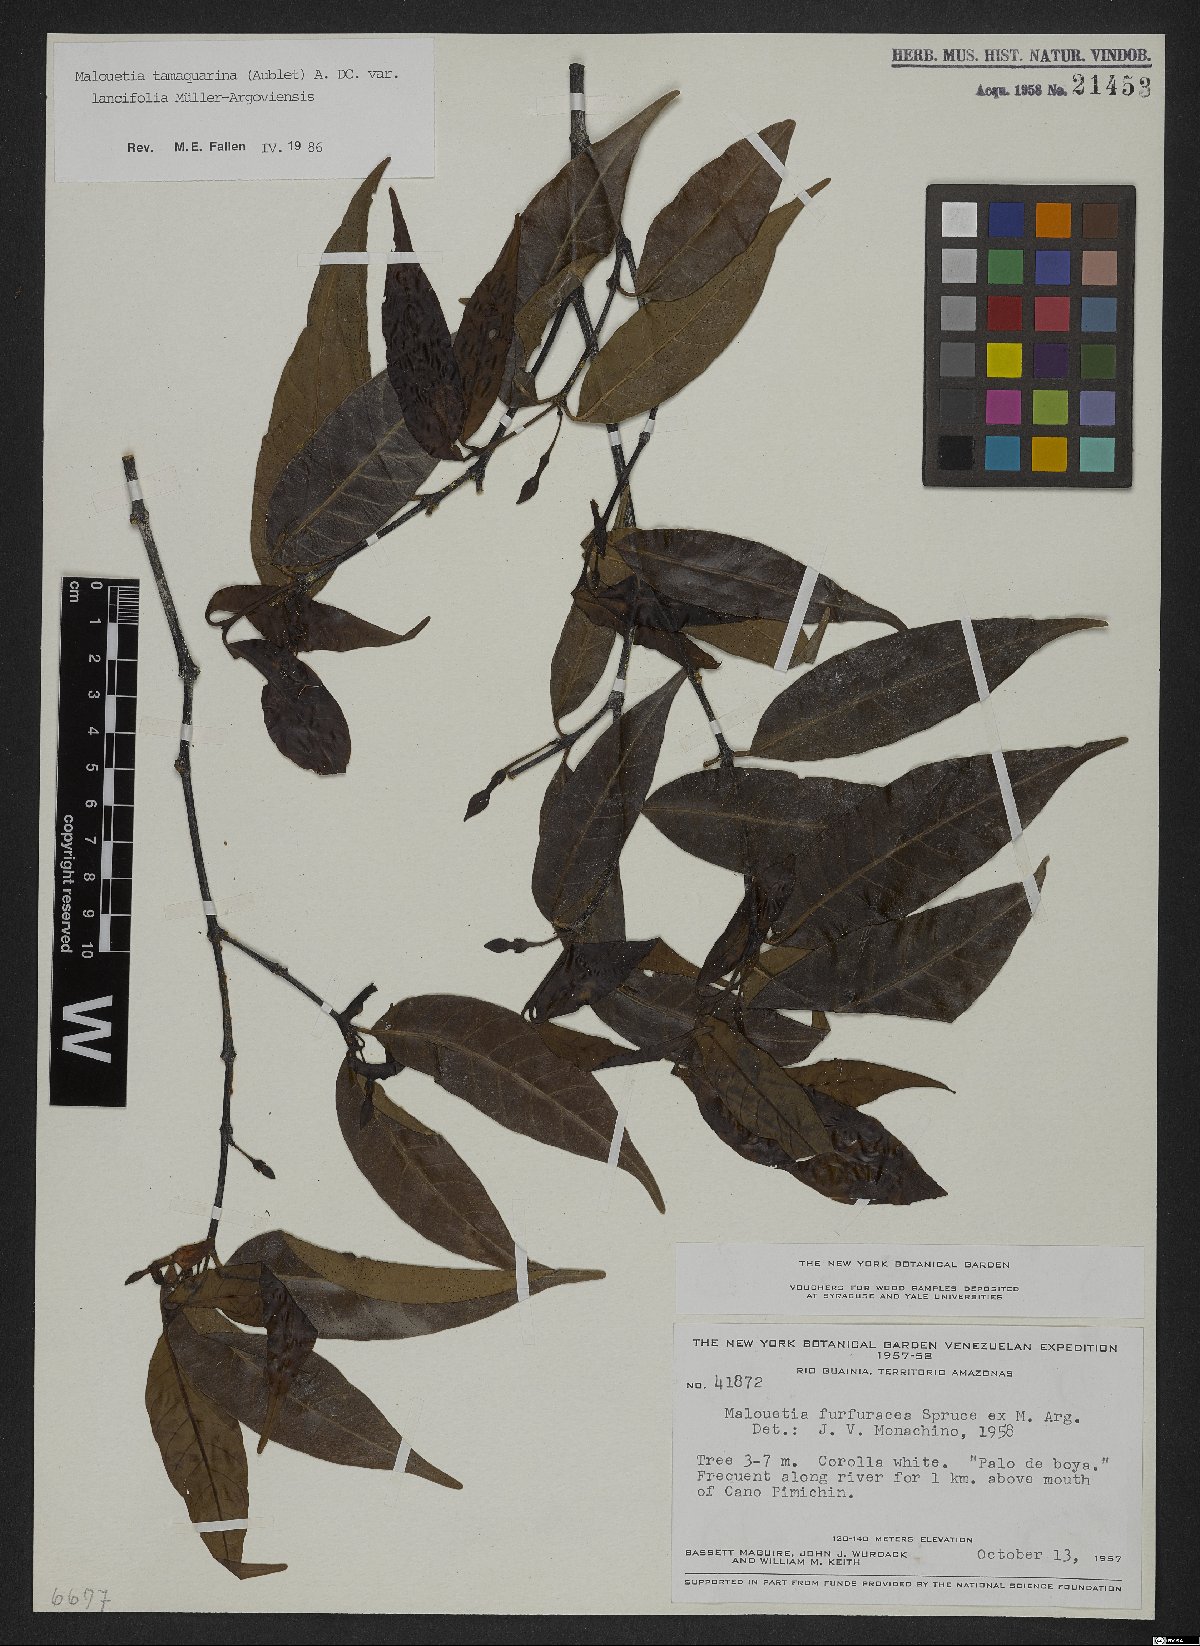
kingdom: Plantae
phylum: Tracheophyta
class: Magnoliopsida
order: Gentianales
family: Apocynaceae
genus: Malouetia
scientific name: Malouetia tamaquarina
